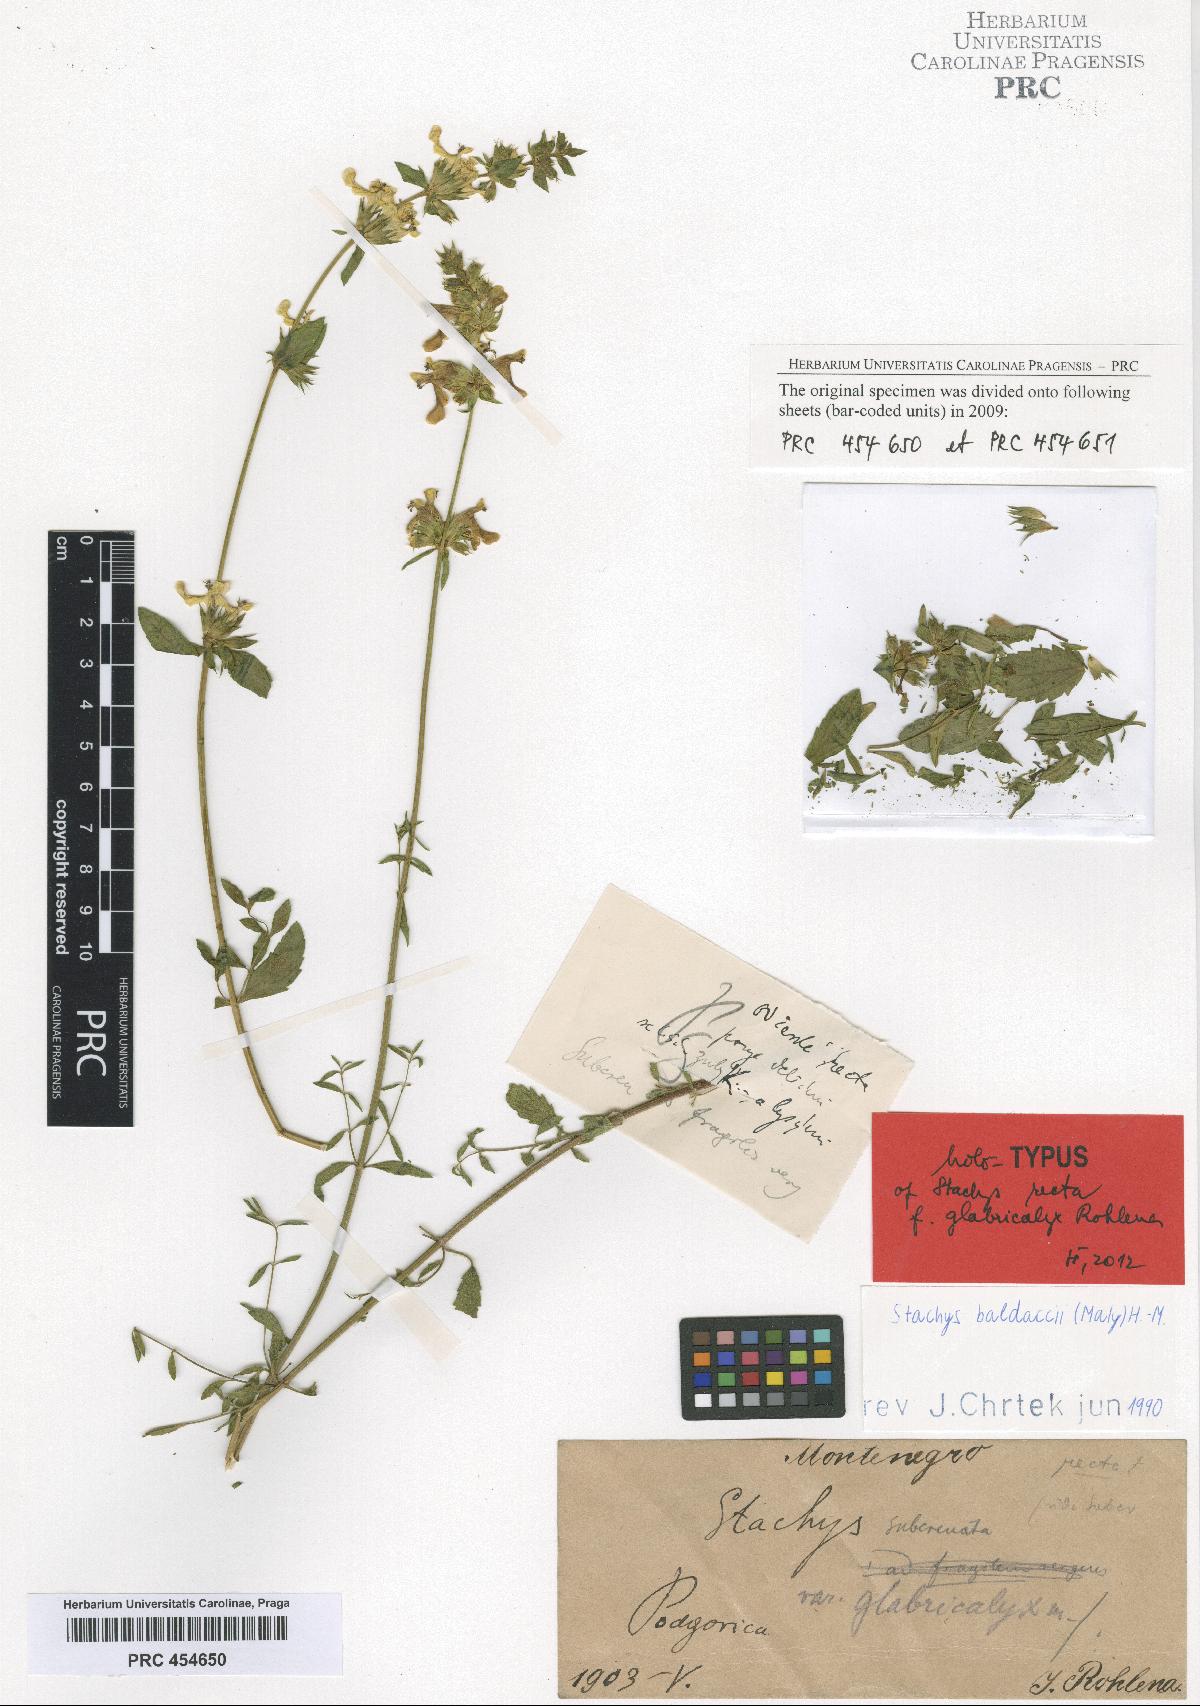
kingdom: Plantae
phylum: Tracheophyta
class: Magnoliopsida
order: Lamiales
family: Lamiaceae
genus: Stachys
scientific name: Stachys recta
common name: Perennial yellow-woundwort
